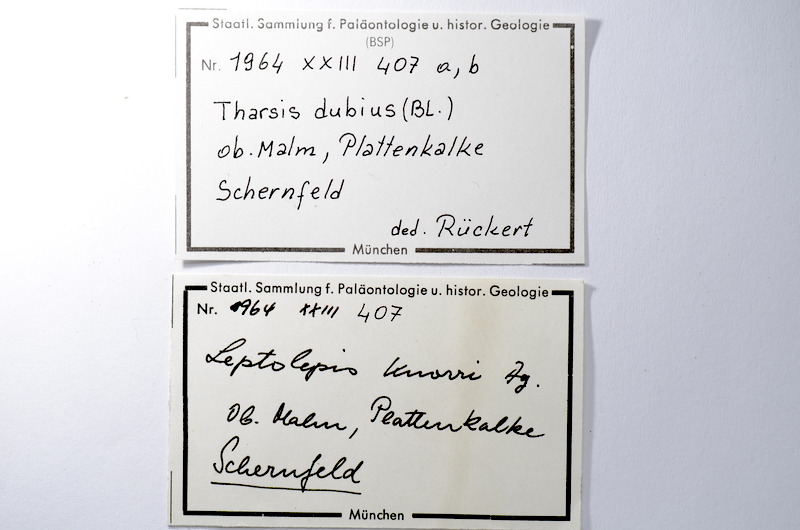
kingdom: Animalia
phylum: Chordata
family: Ascalaboidae
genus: Tharsis
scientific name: Tharsis dubius
